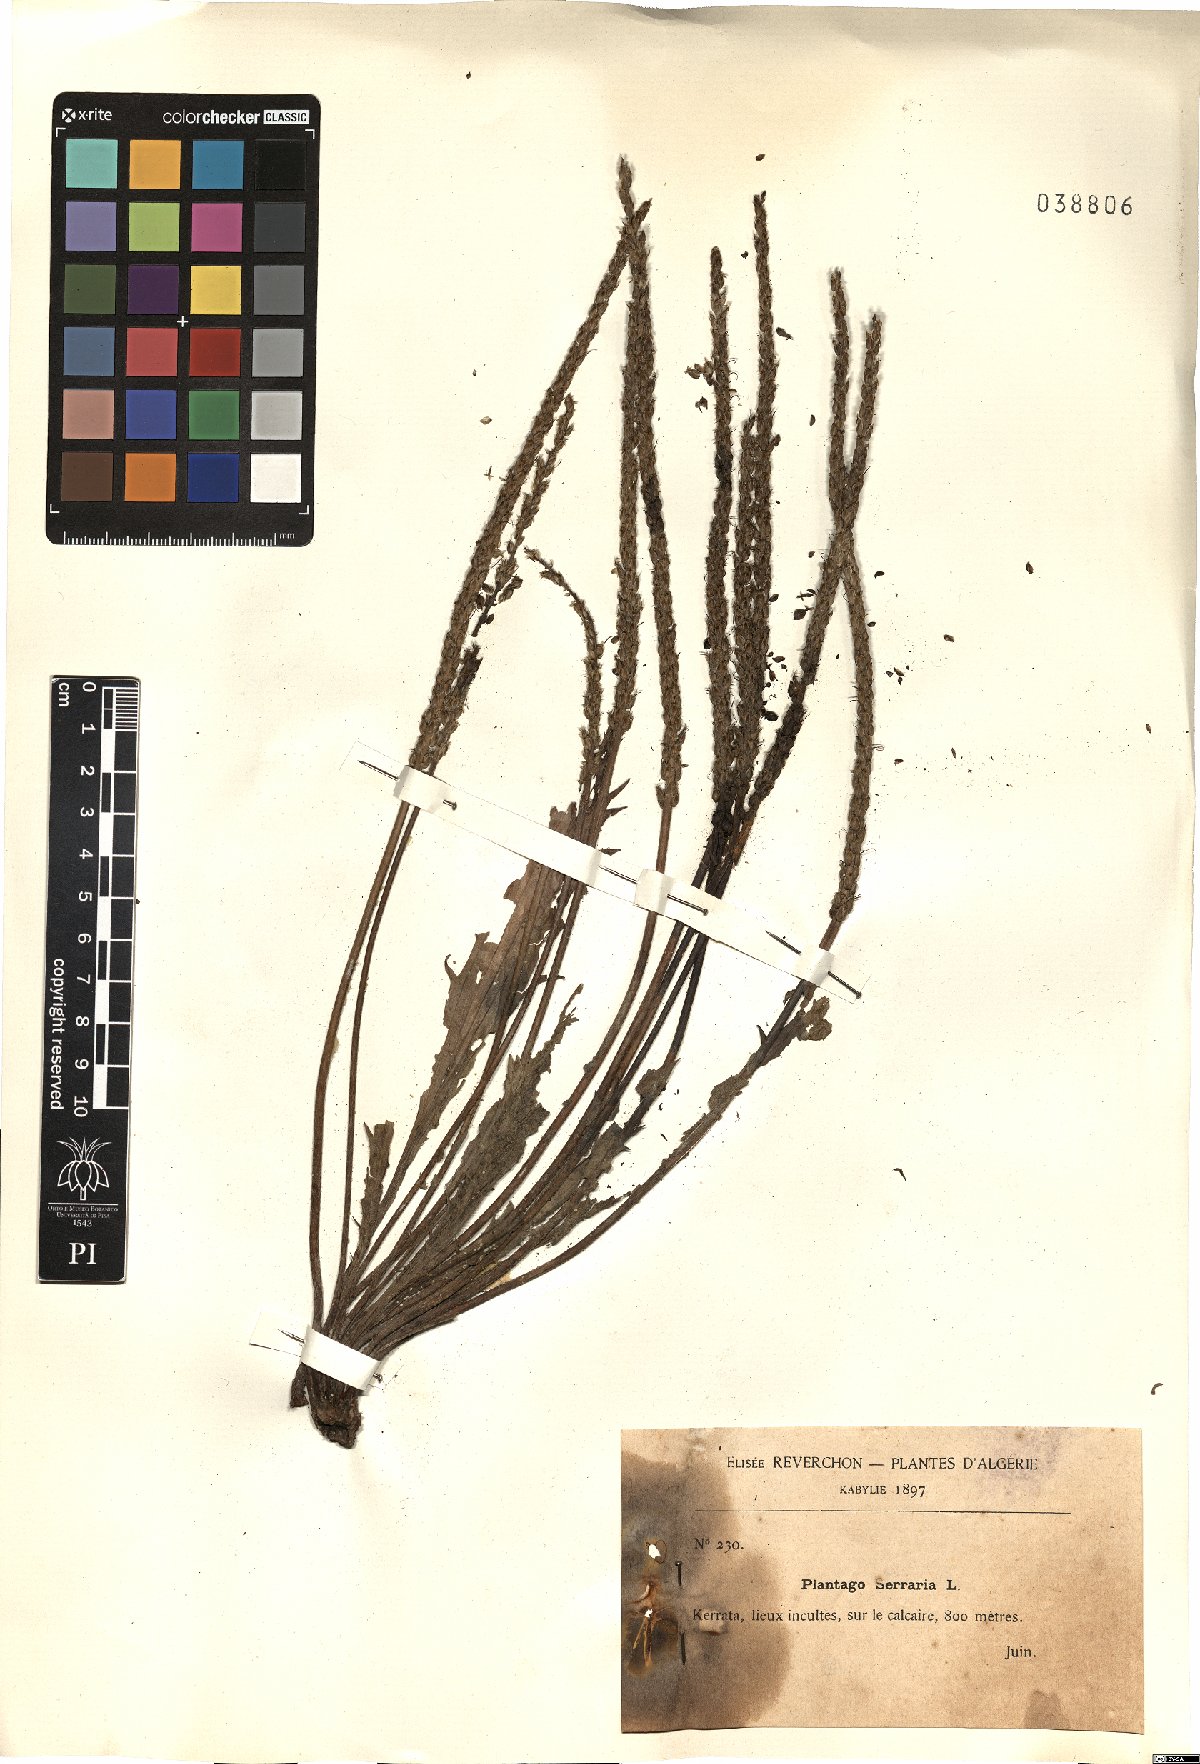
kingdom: Plantae
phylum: Tracheophyta
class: Magnoliopsida
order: Lamiales
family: Plantaginaceae
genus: Plantago
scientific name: Plantago serraria
